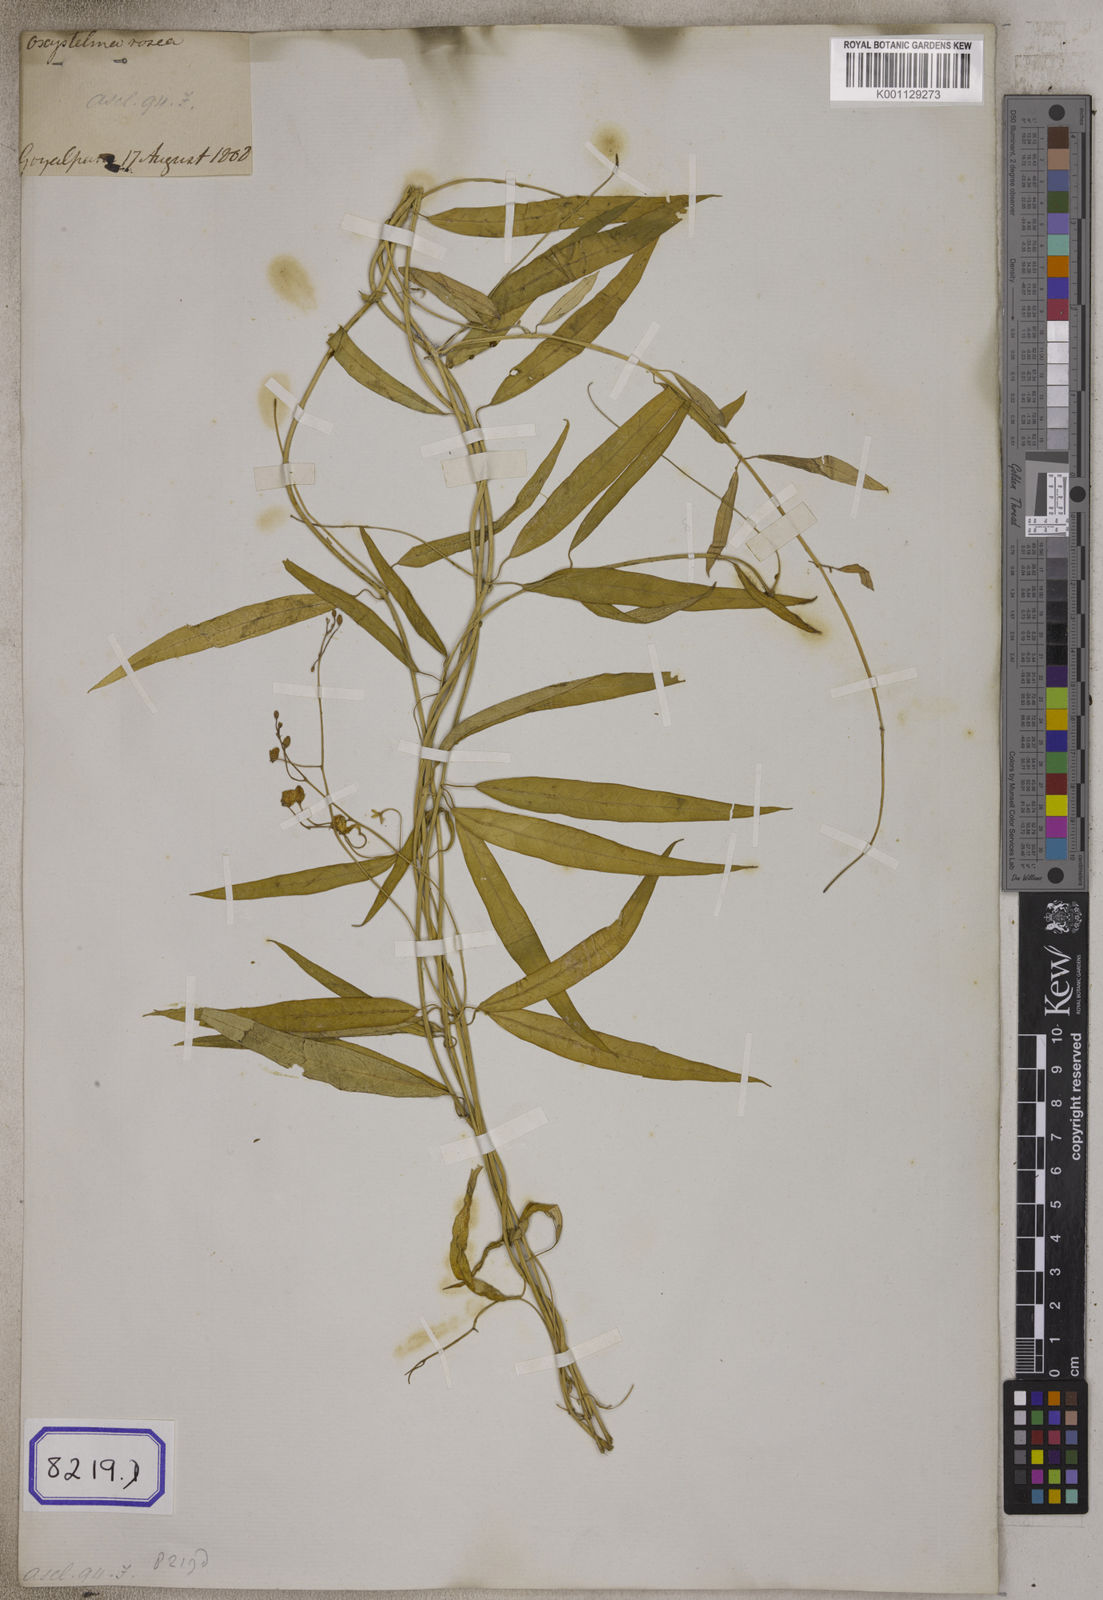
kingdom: Plantae
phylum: Tracheophyta
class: Magnoliopsida
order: Gentianales
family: Apocynaceae
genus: Oxystelma
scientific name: Oxystelma
